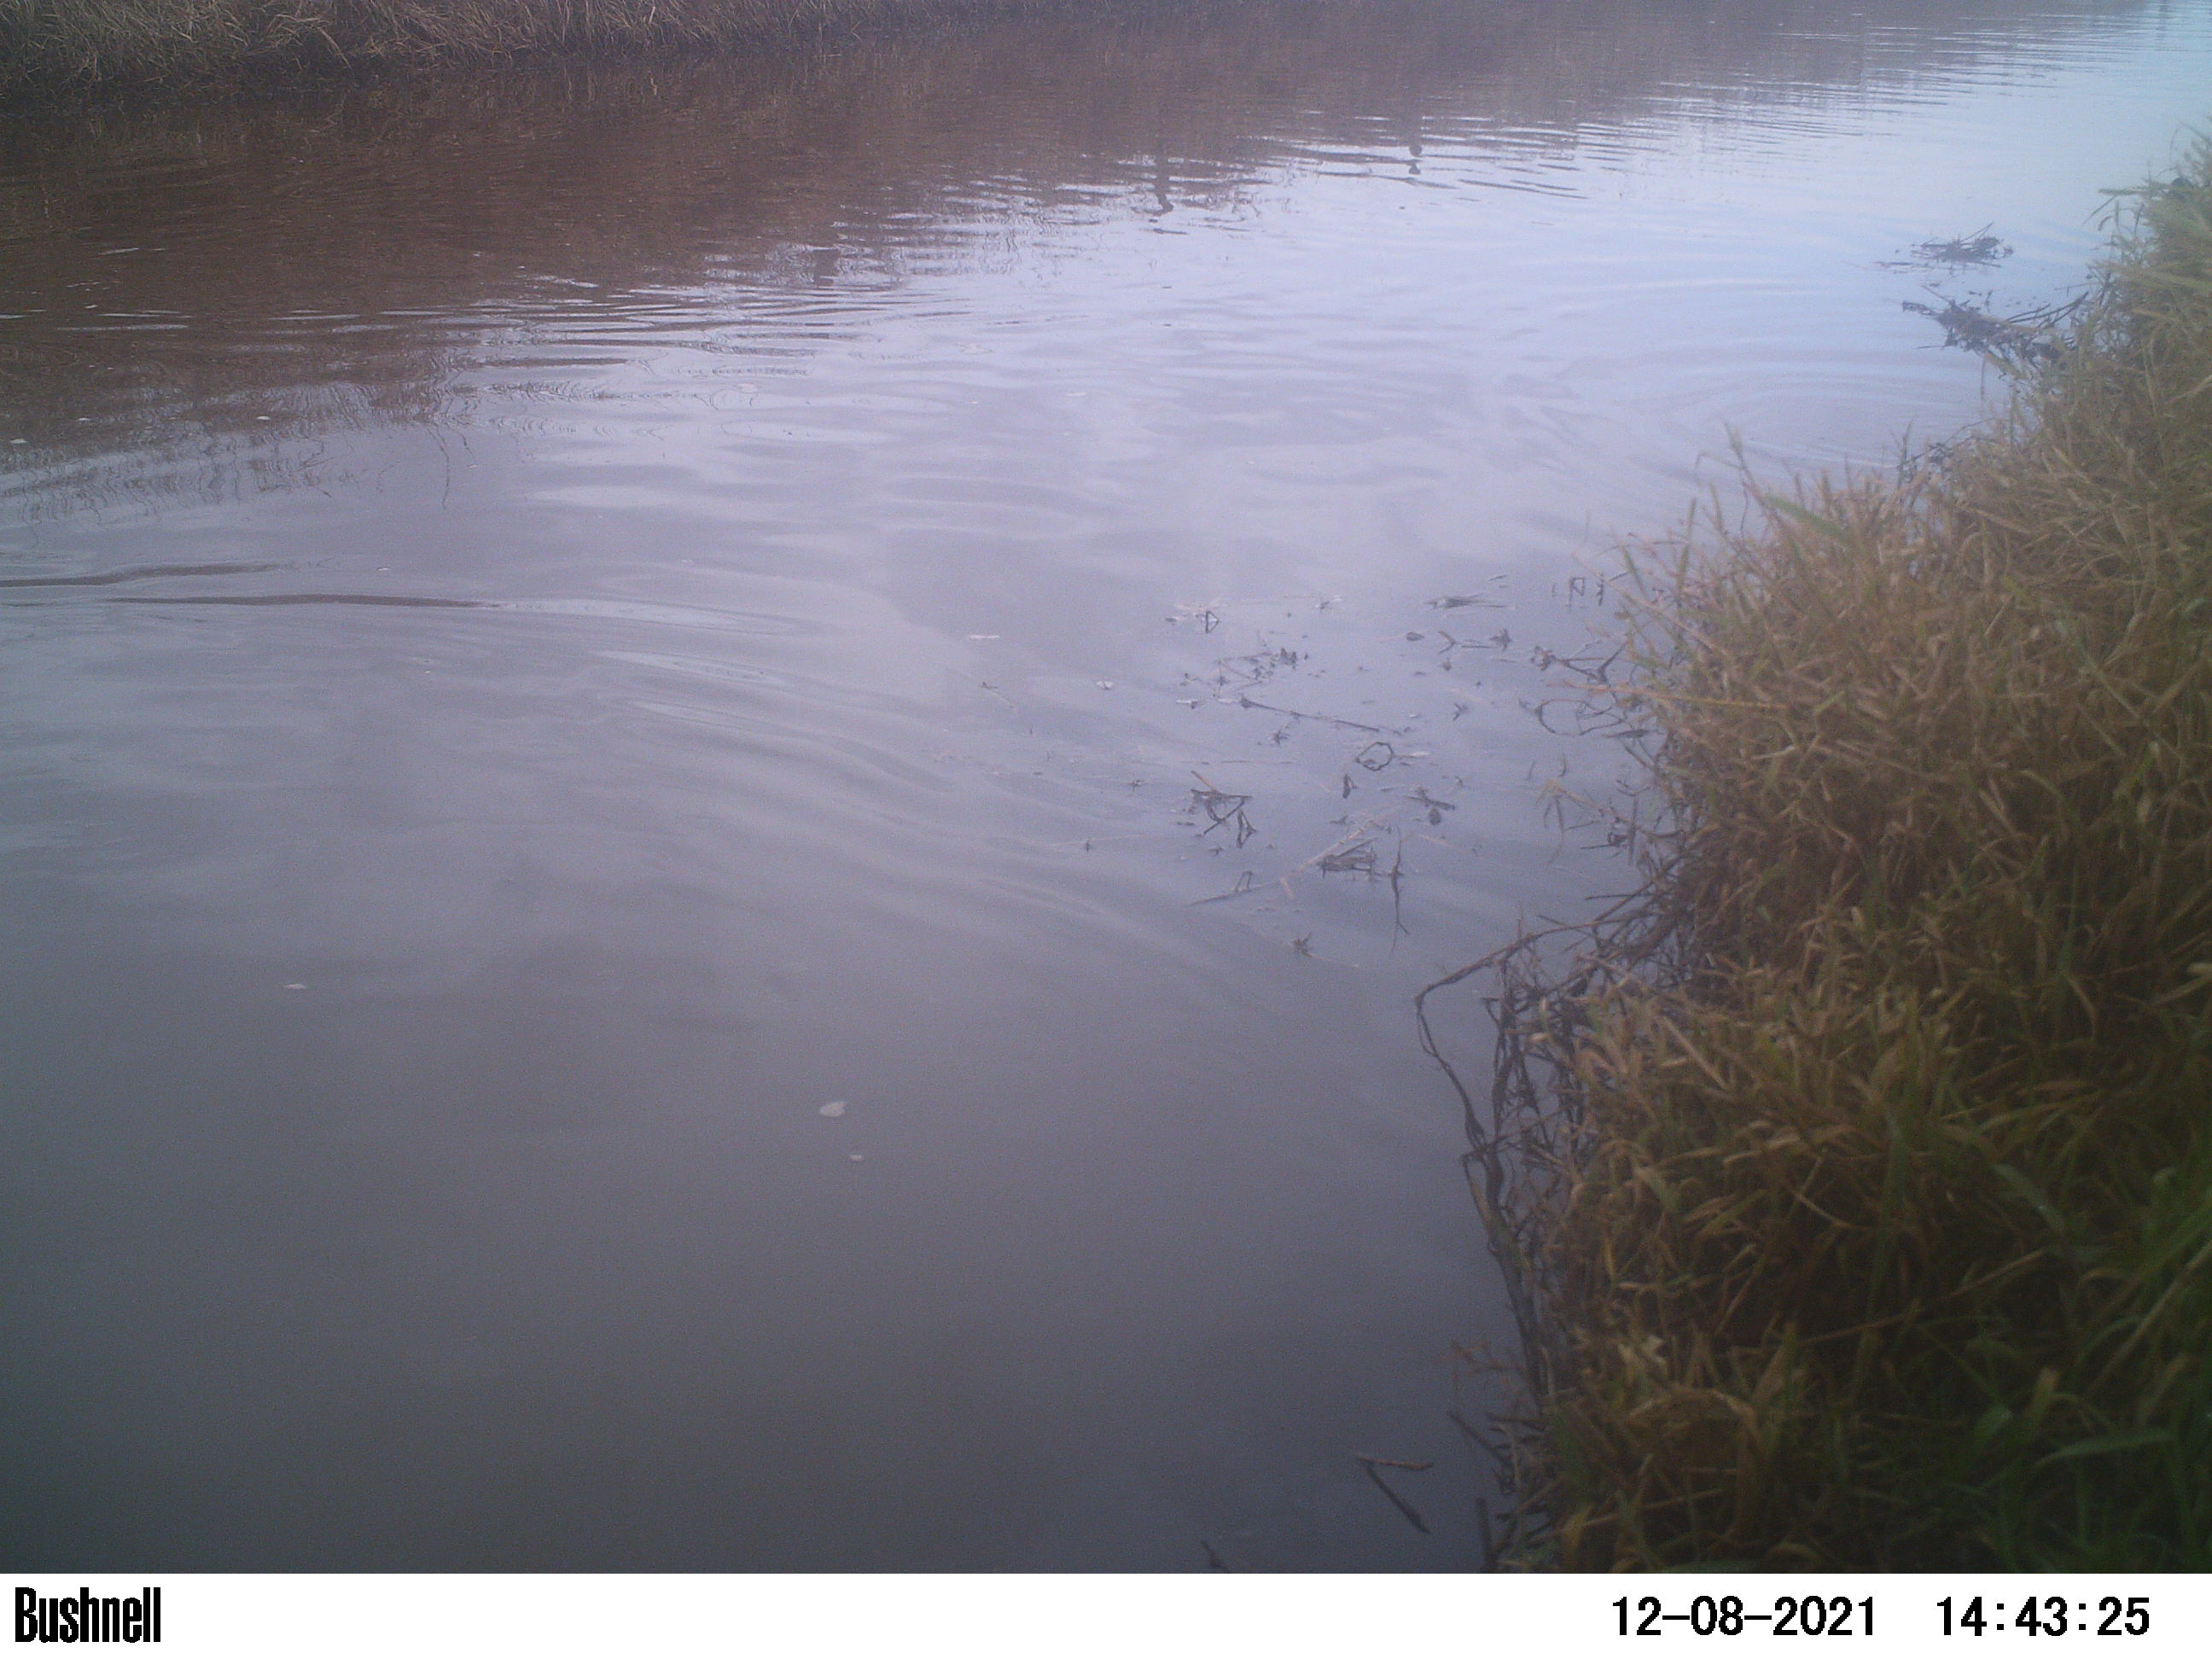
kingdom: Animalia
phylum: Chordata
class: Aves
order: Anseriformes
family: Anatidae
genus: Anas
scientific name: Anas
